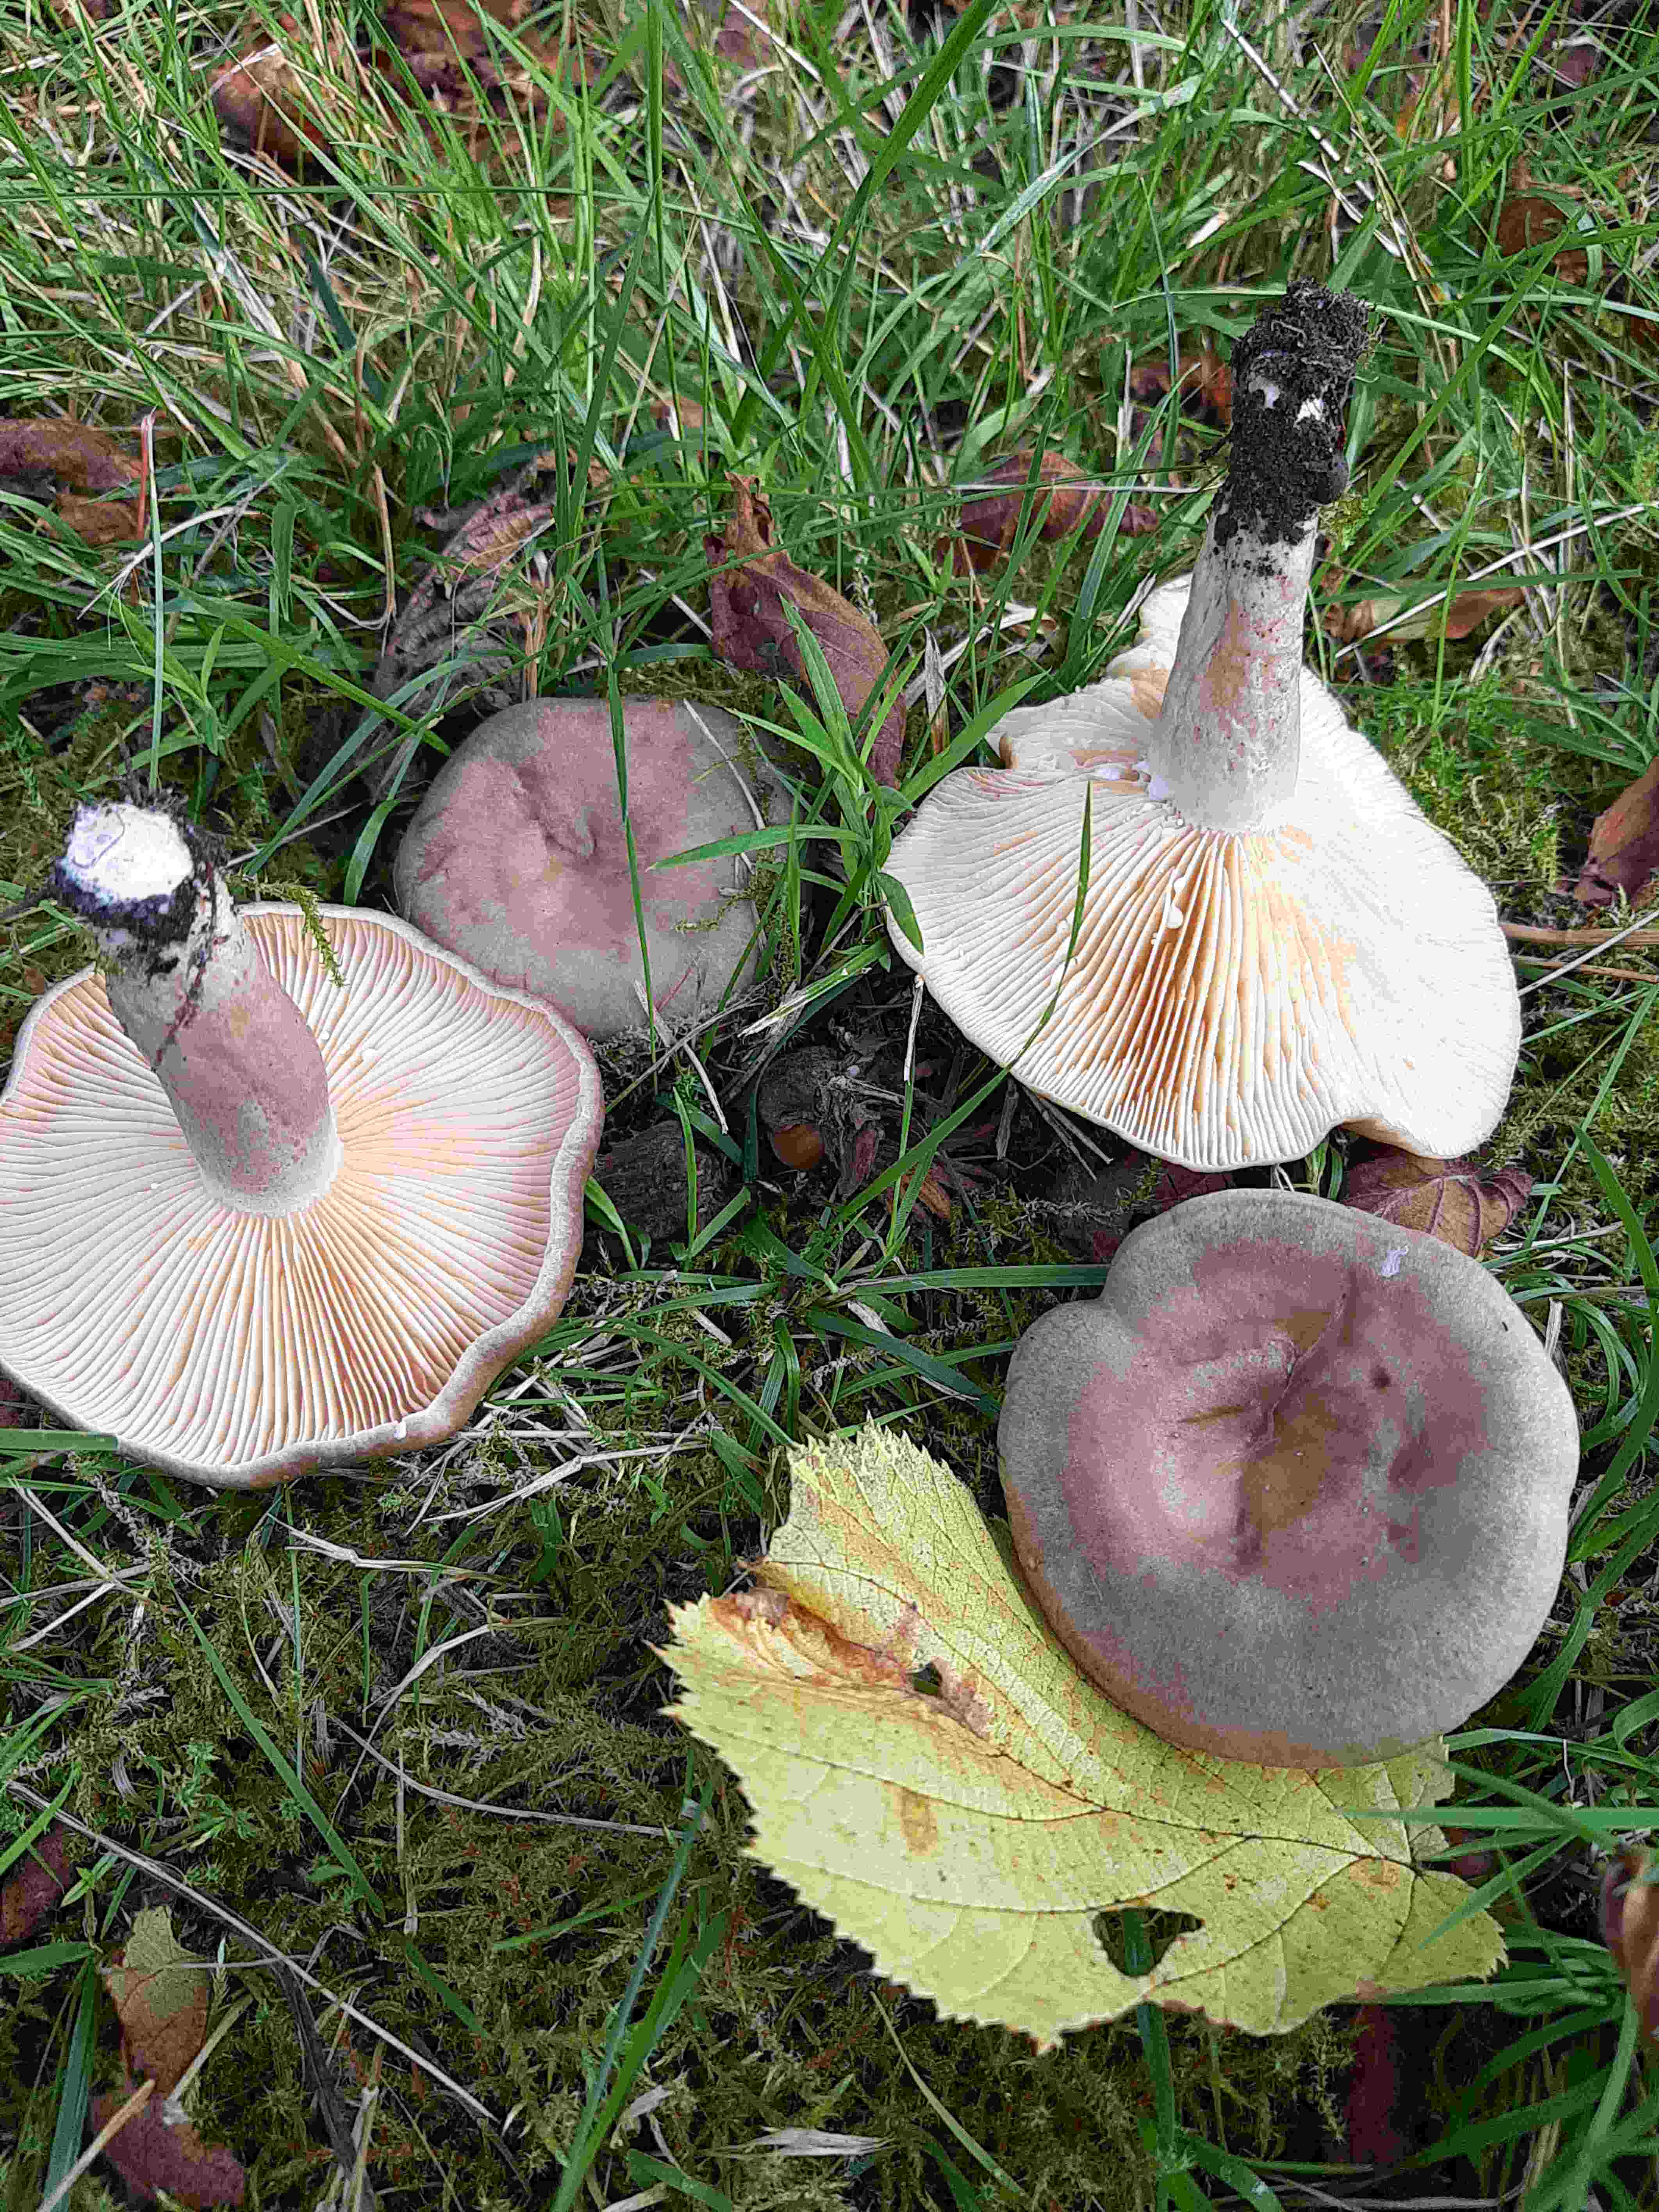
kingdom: Fungi
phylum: Basidiomycota
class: Agaricomycetes
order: Russulales
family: Russulaceae
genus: Lactarius
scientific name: Lactarius pyrogalus
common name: hassel-mælkehat
